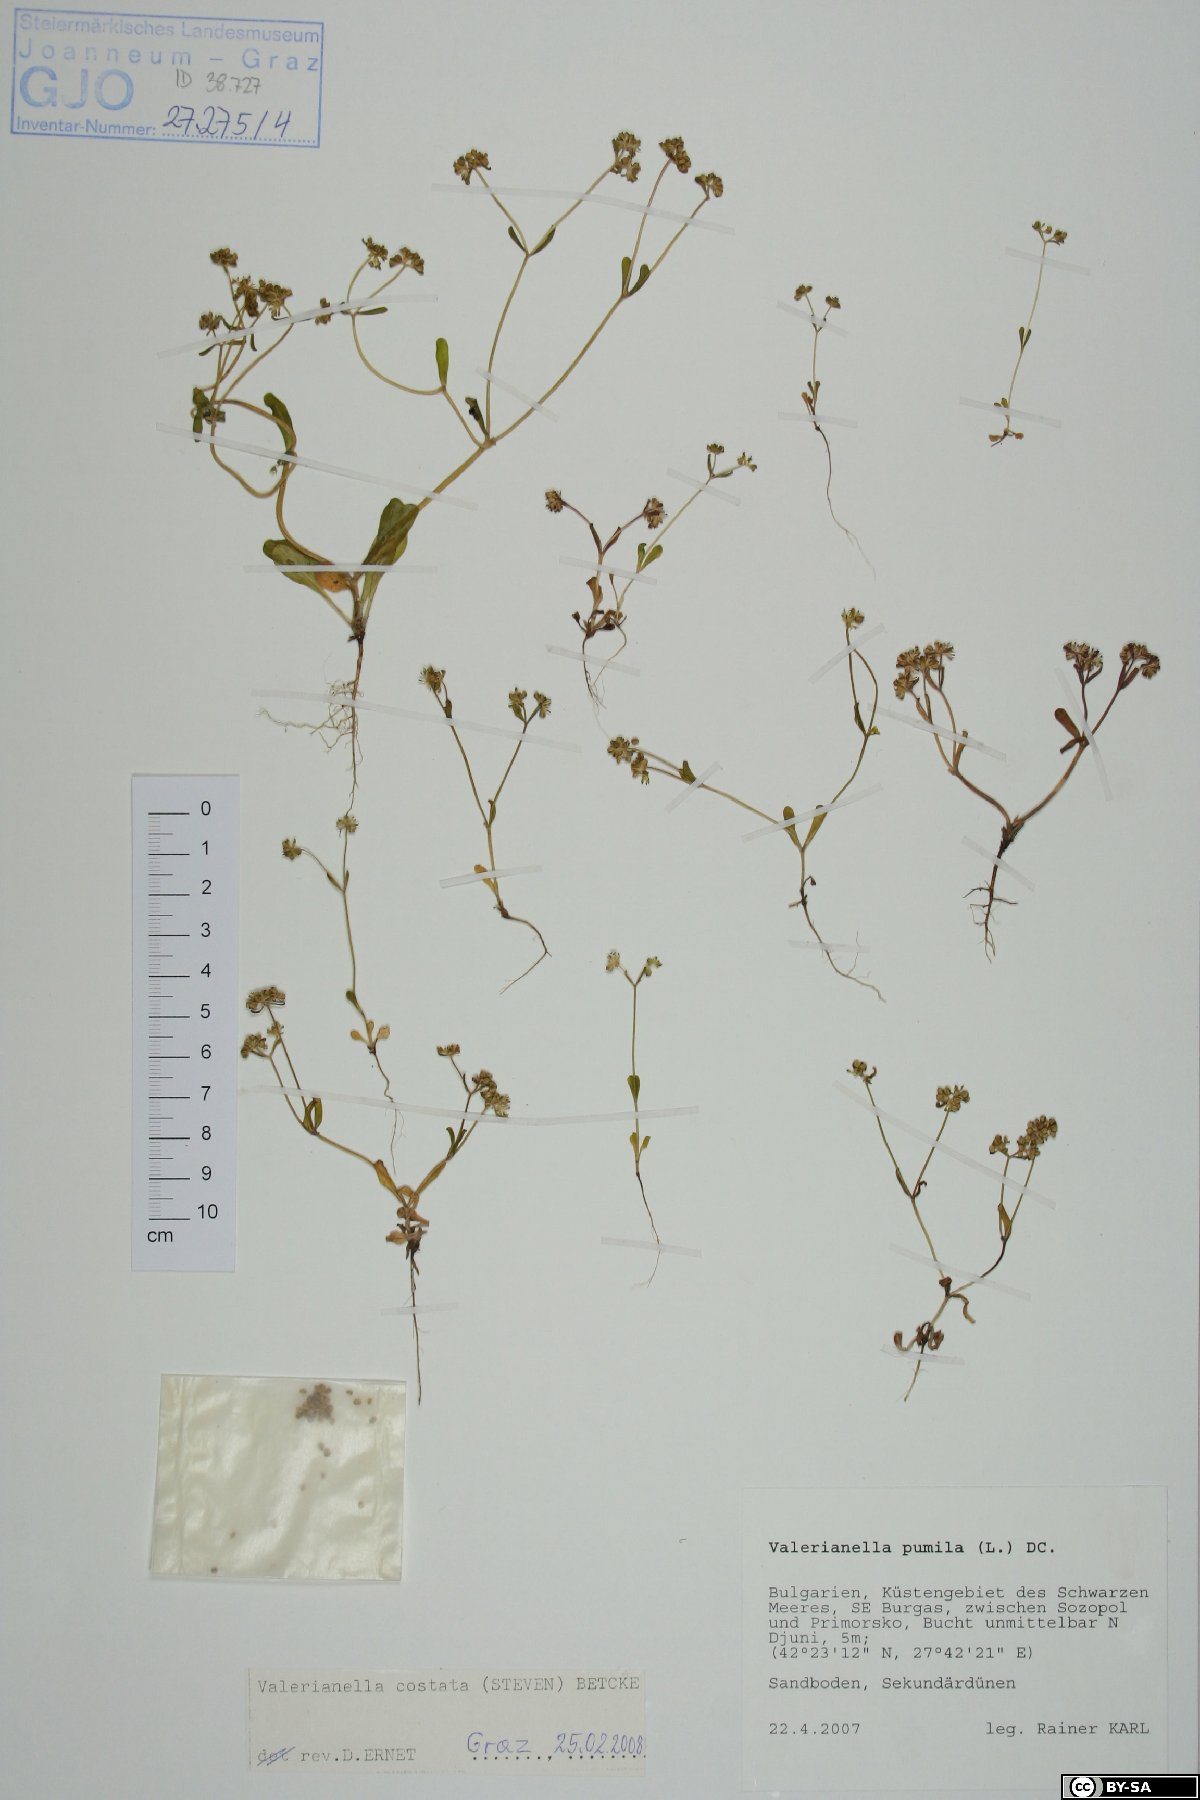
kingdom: Plantae
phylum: Tracheophyta
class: Magnoliopsida
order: Dipsacales
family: Caprifoliaceae
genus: Valerianella
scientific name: Valerianella costata
